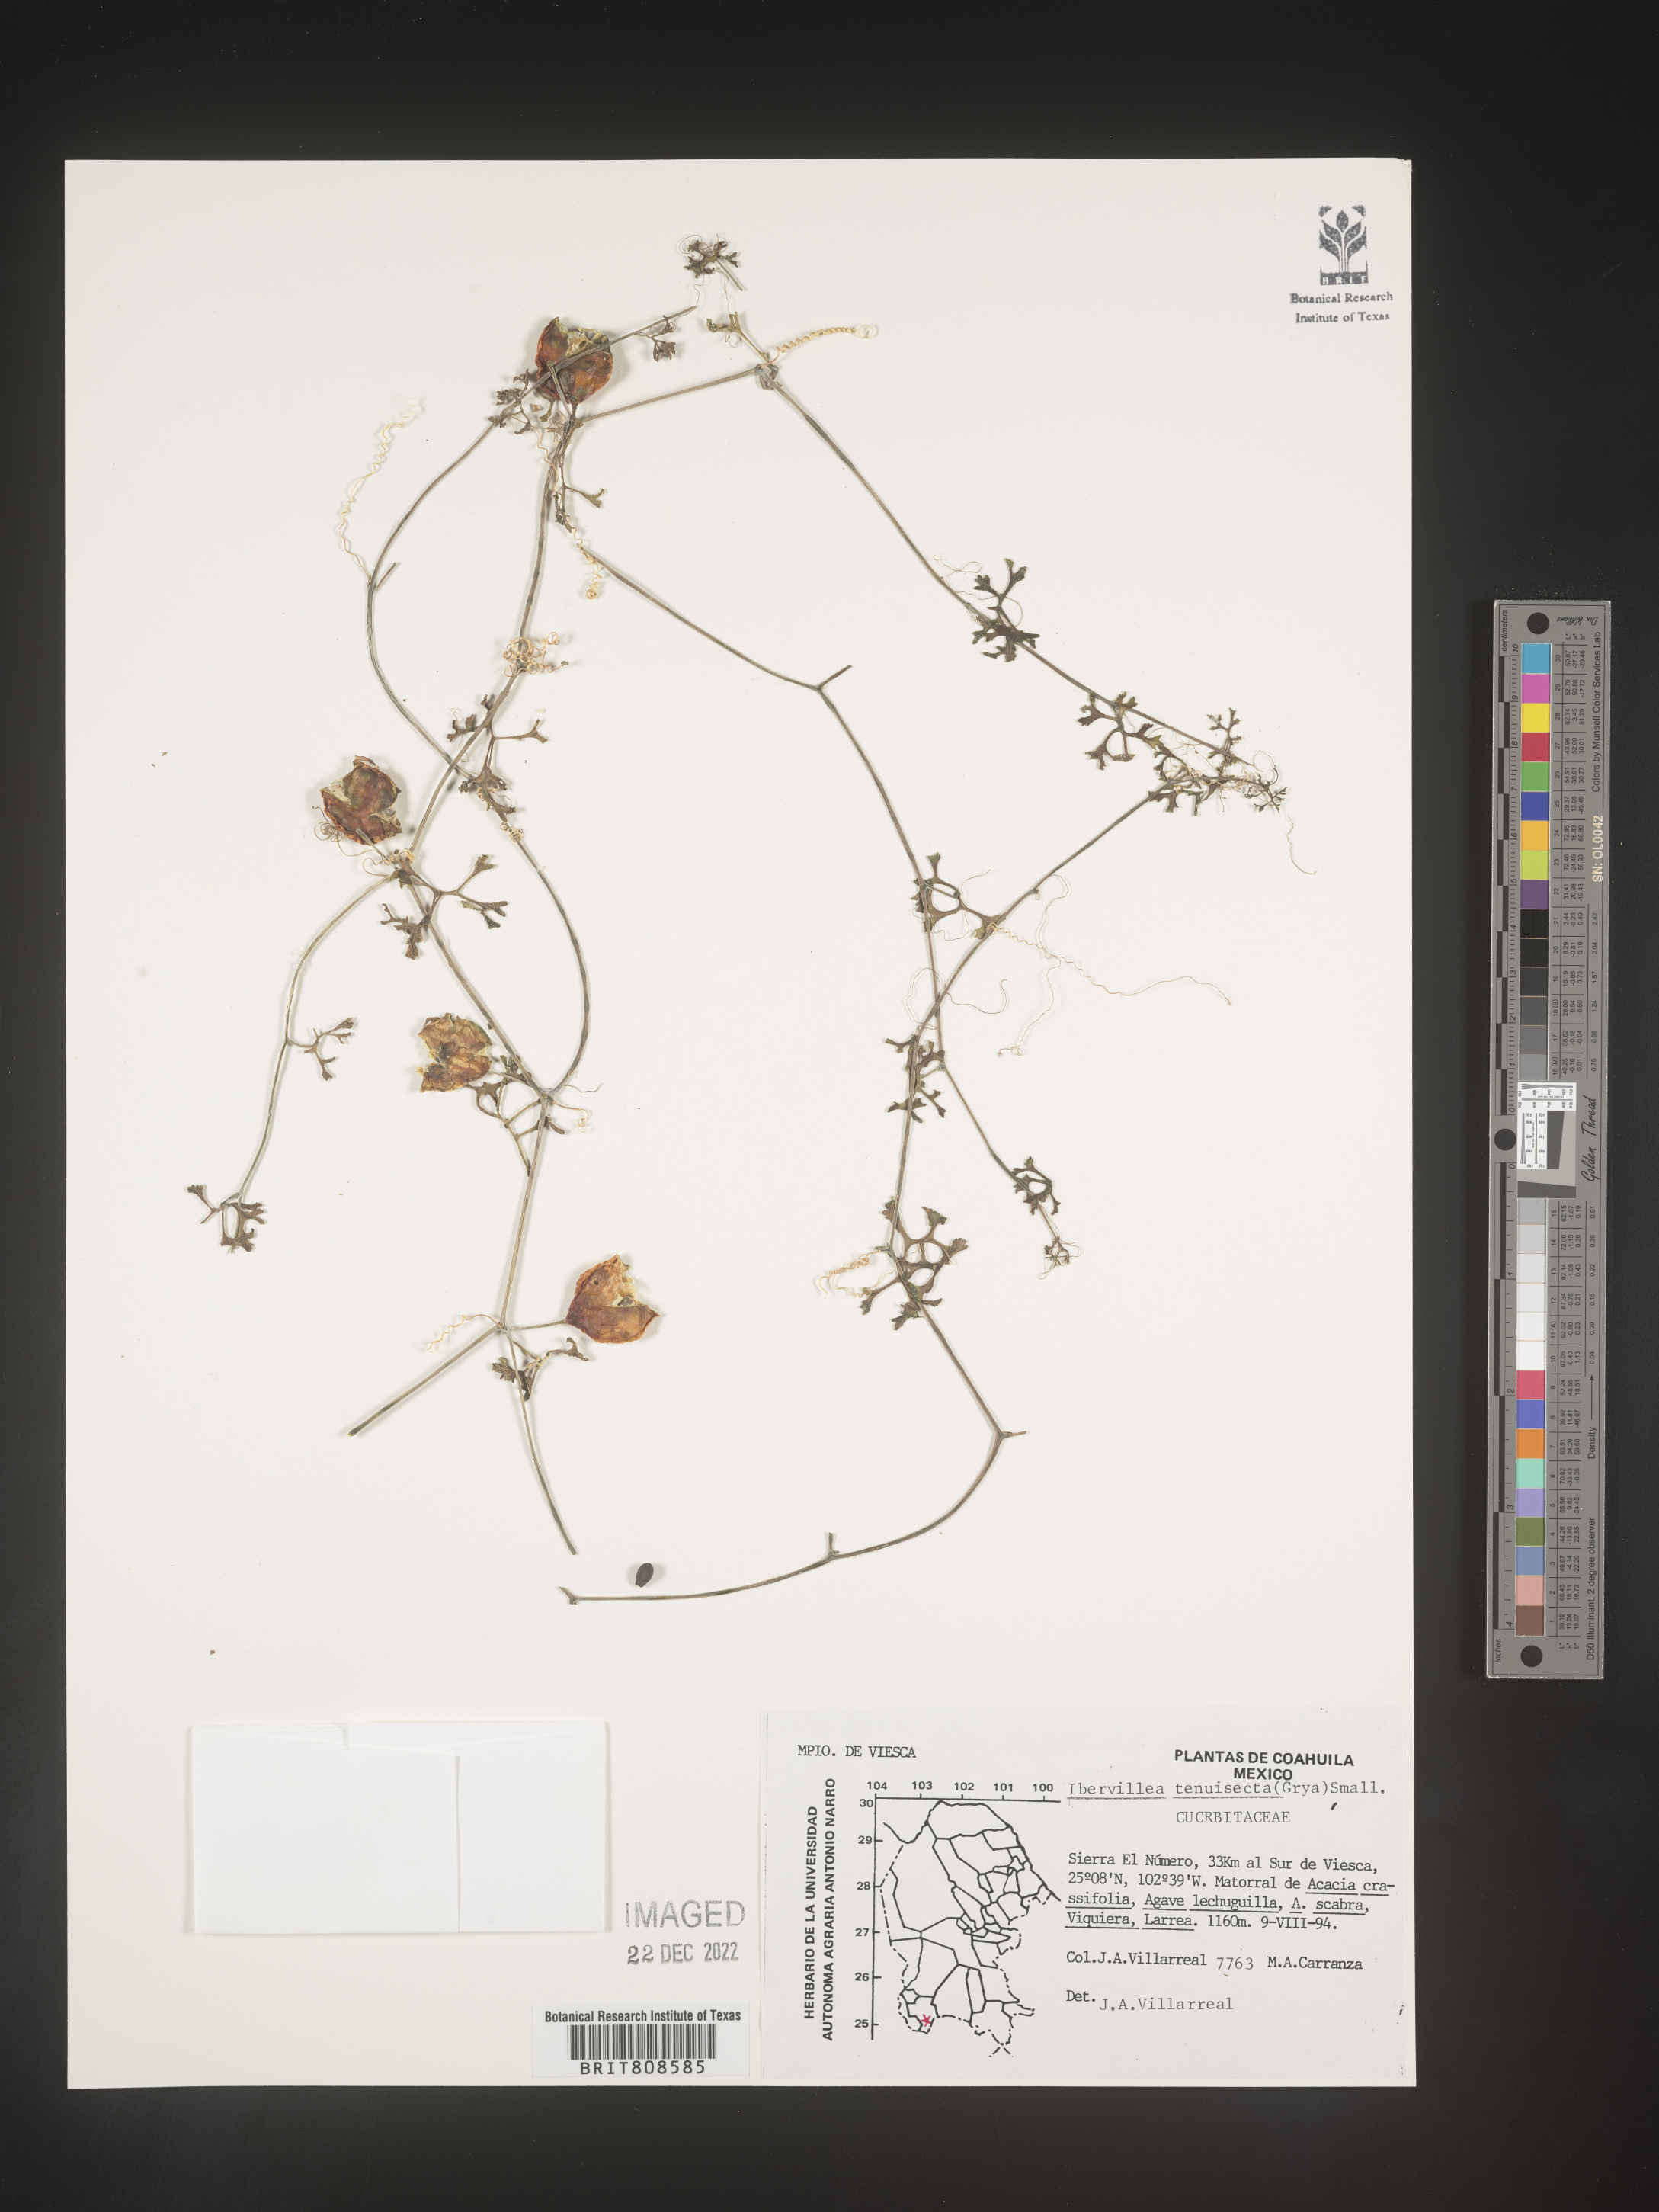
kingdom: Plantae
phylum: Tracheophyta
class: Magnoliopsida
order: Cucurbitales
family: Cucurbitaceae
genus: Ibervillea
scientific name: Ibervillea
